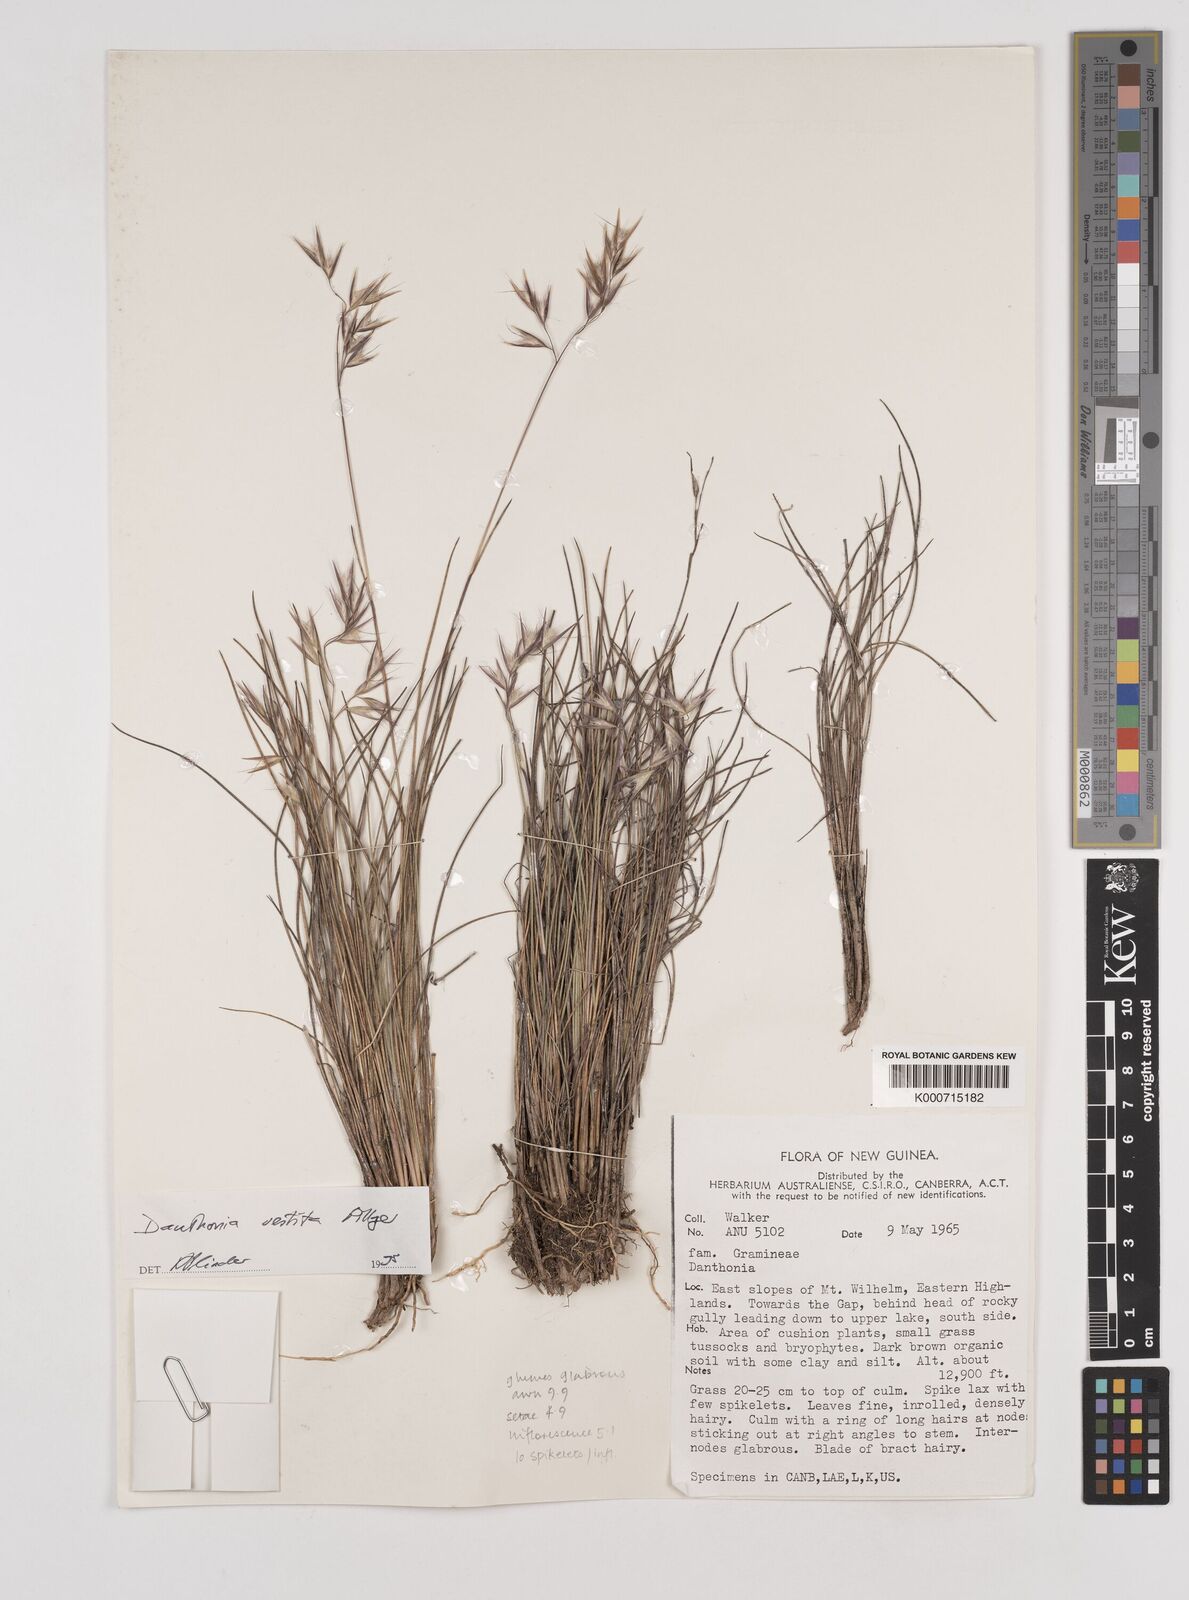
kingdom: Plantae
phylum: Tracheophyta
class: Liliopsida
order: Poales
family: Poaceae
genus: Rytidosperma
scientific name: Rytidosperma vestitum
